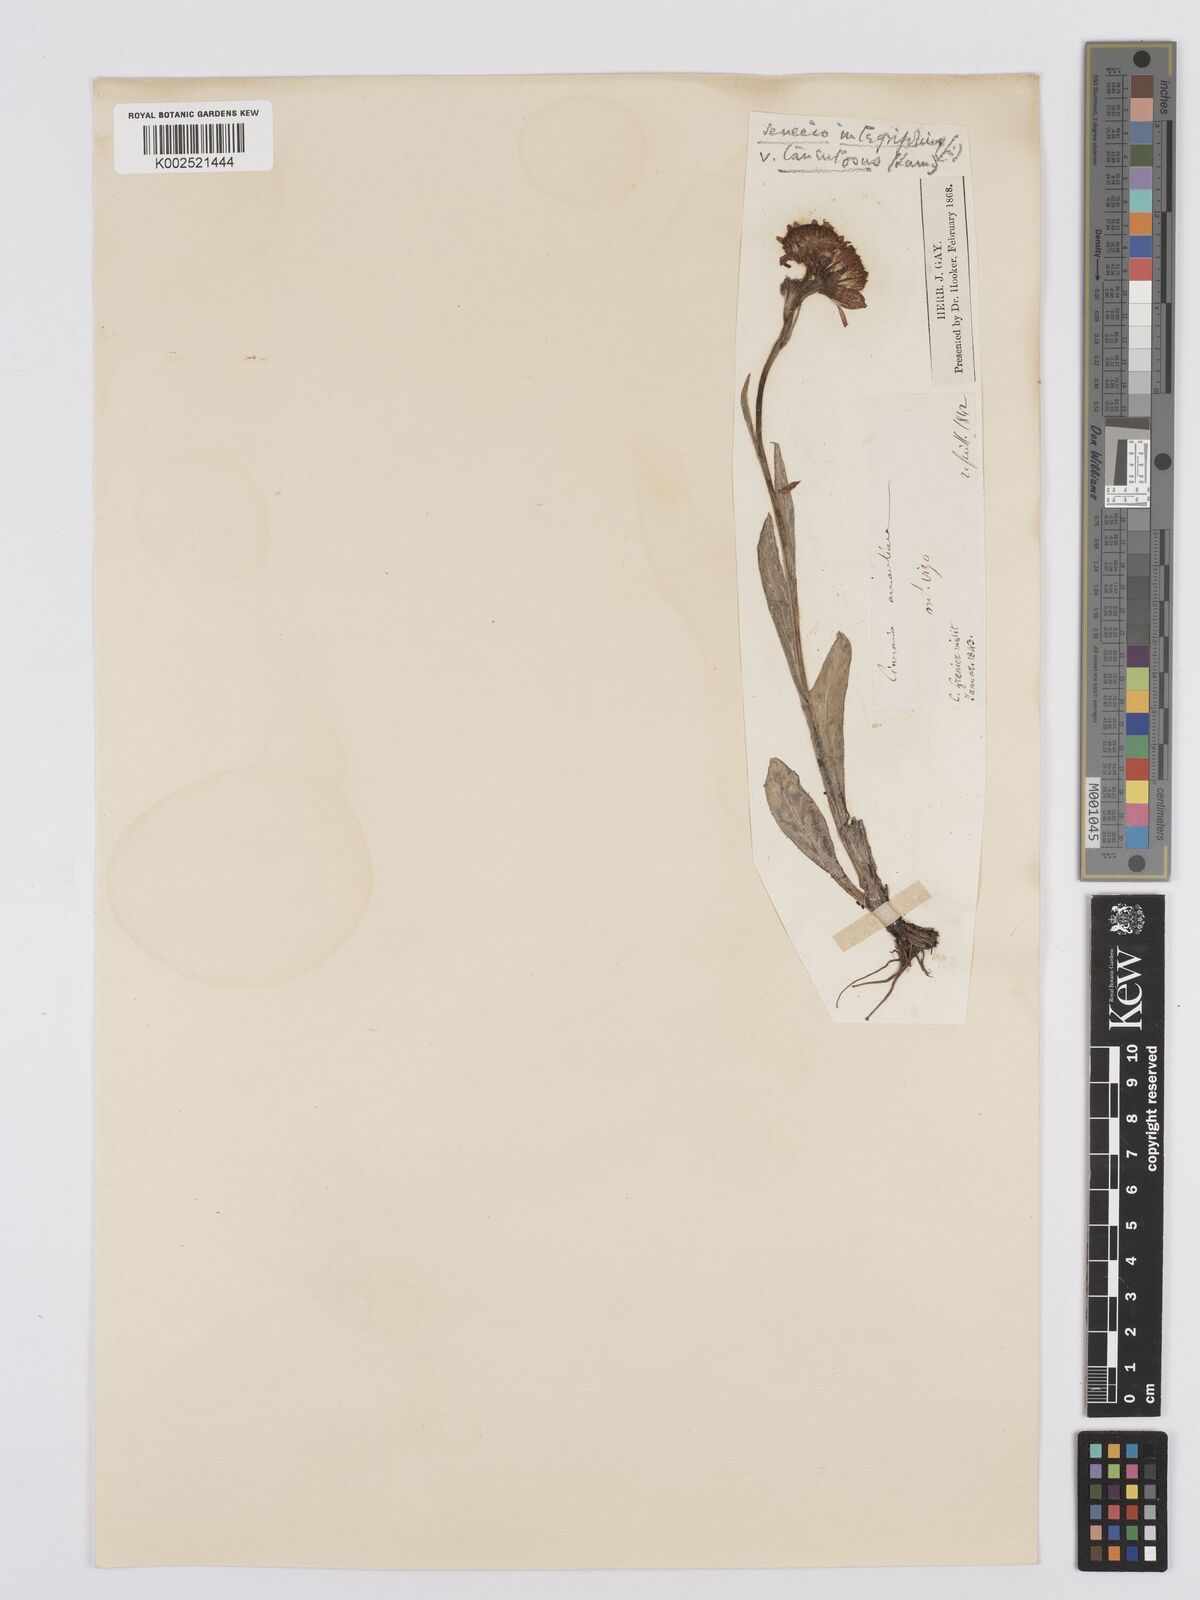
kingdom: Plantae
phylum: Tracheophyta
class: Magnoliopsida
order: Asterales
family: Asteraceae
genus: Tephroseris
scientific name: Tephroseris integrifolia
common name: Field fleawort
